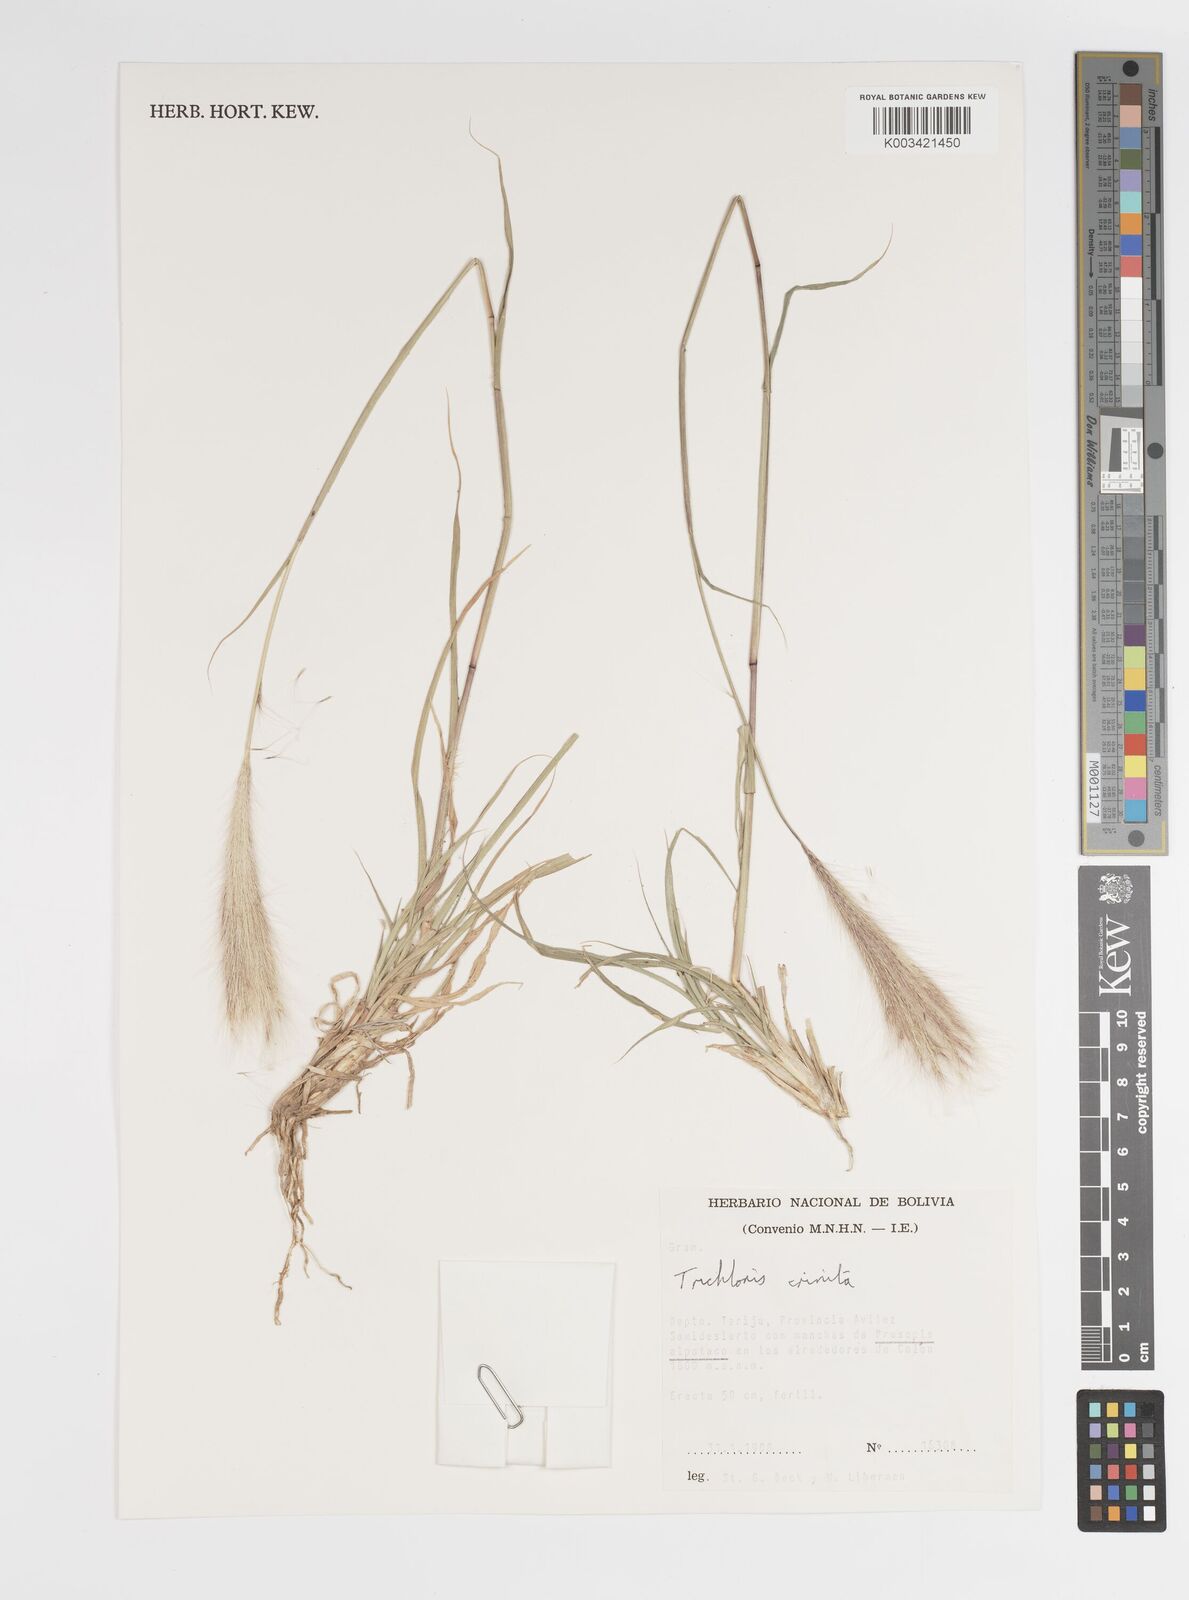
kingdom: Plantae
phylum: Tracheophyta
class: Liliopsida
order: Poales
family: Poaceae
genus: Leptochloa
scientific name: Leptochloa crinita
